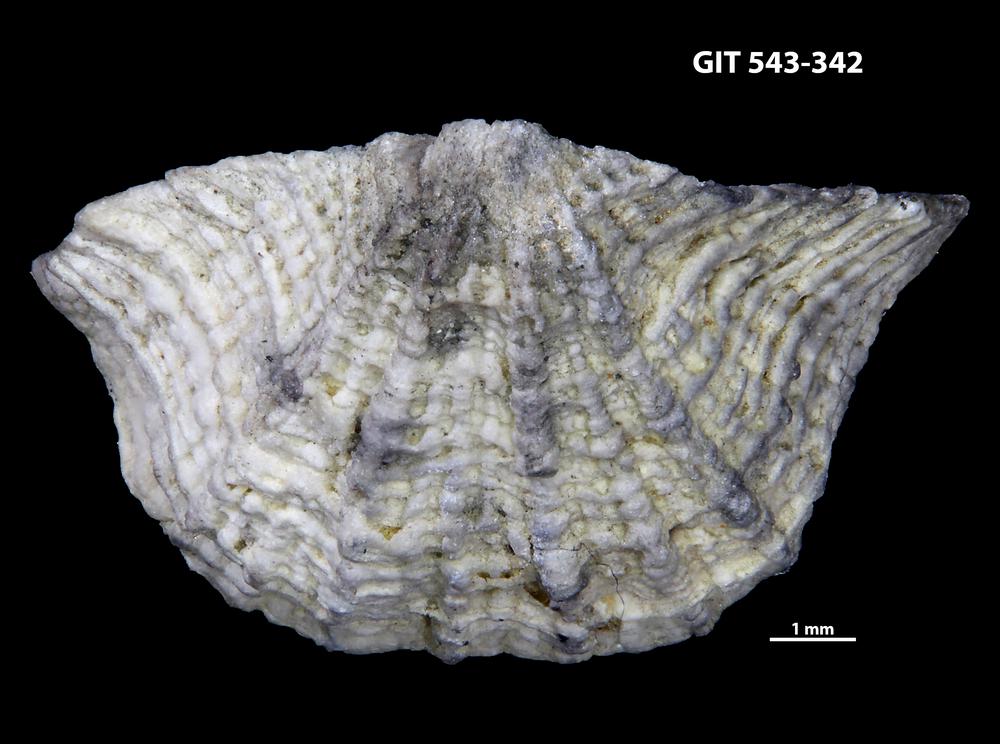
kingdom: Animalia
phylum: Brachiopoda
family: Kullervoidae
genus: Kullervo
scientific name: Kullervo lacunata
